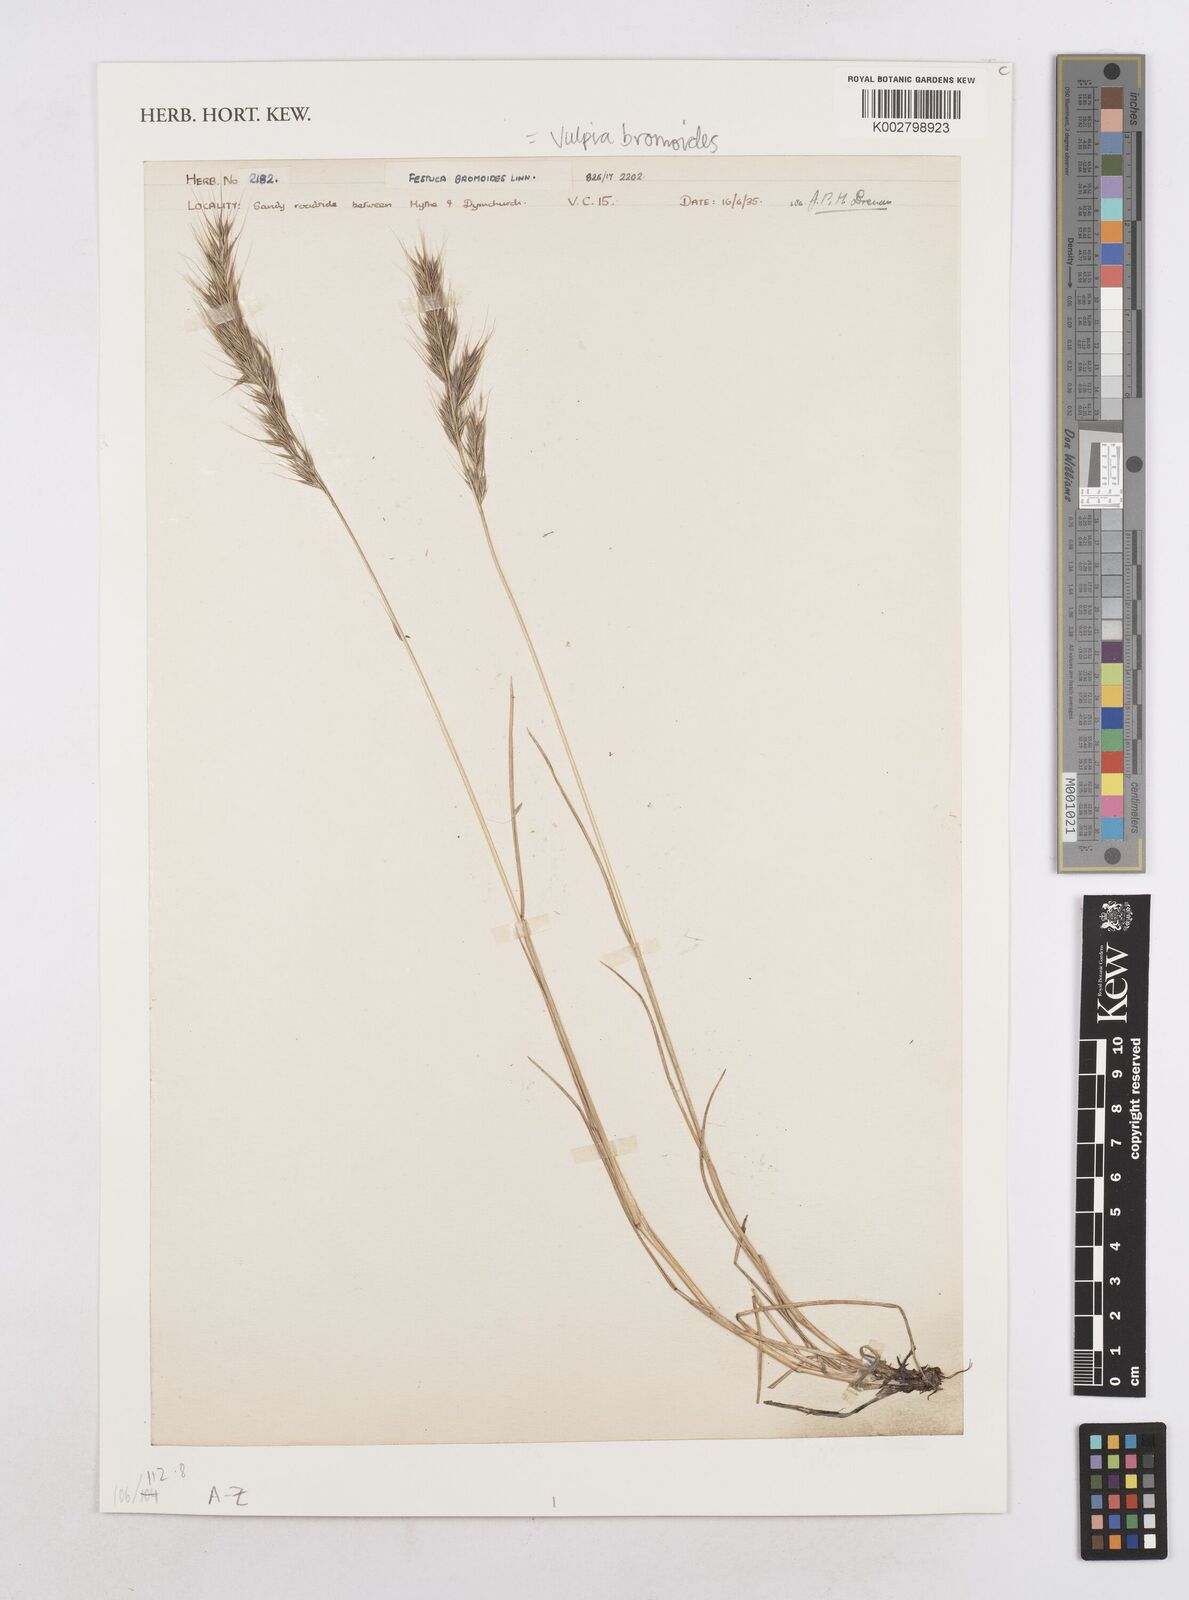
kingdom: Plantae
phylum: Tracheophyta
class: Liliopsida
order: Poales
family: Poaceae
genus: Festuca
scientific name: Festuca bromoides
